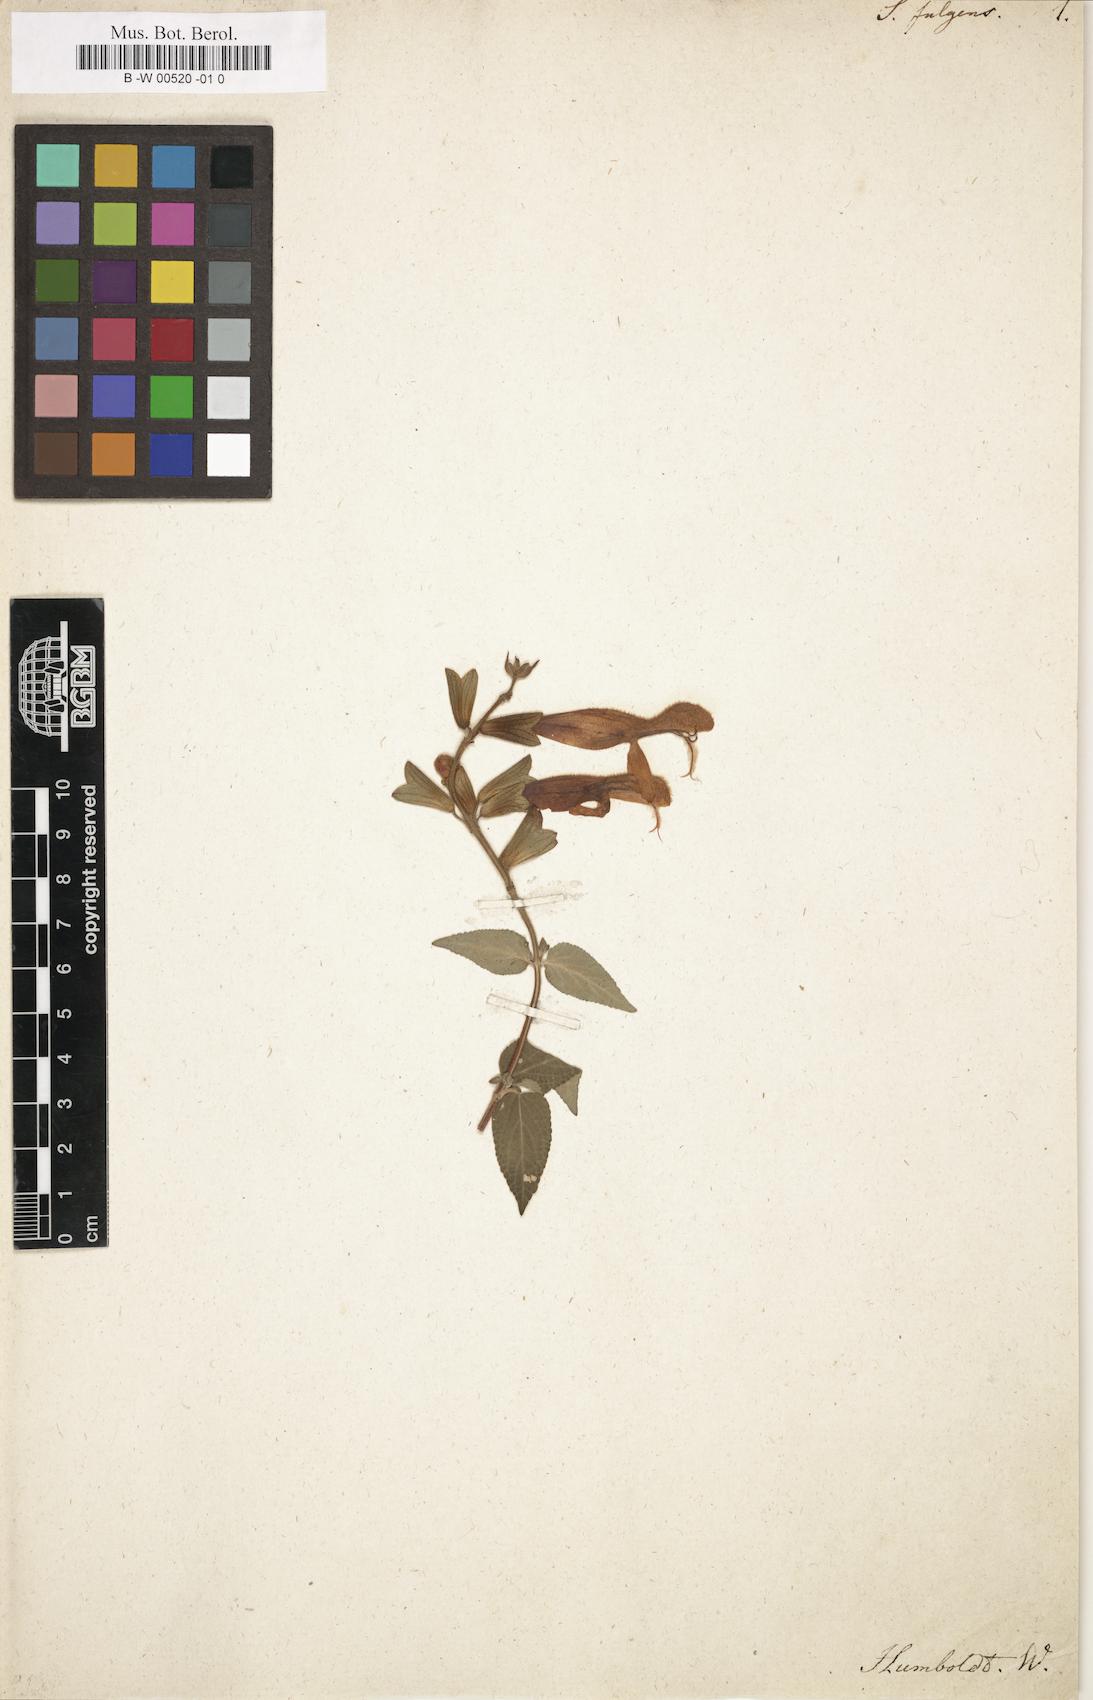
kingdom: Plantae
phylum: Tracheophyta
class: Magnoliopsida
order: Lamiales
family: Lamiaceae
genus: Salvia
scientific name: Salvia fulgens
